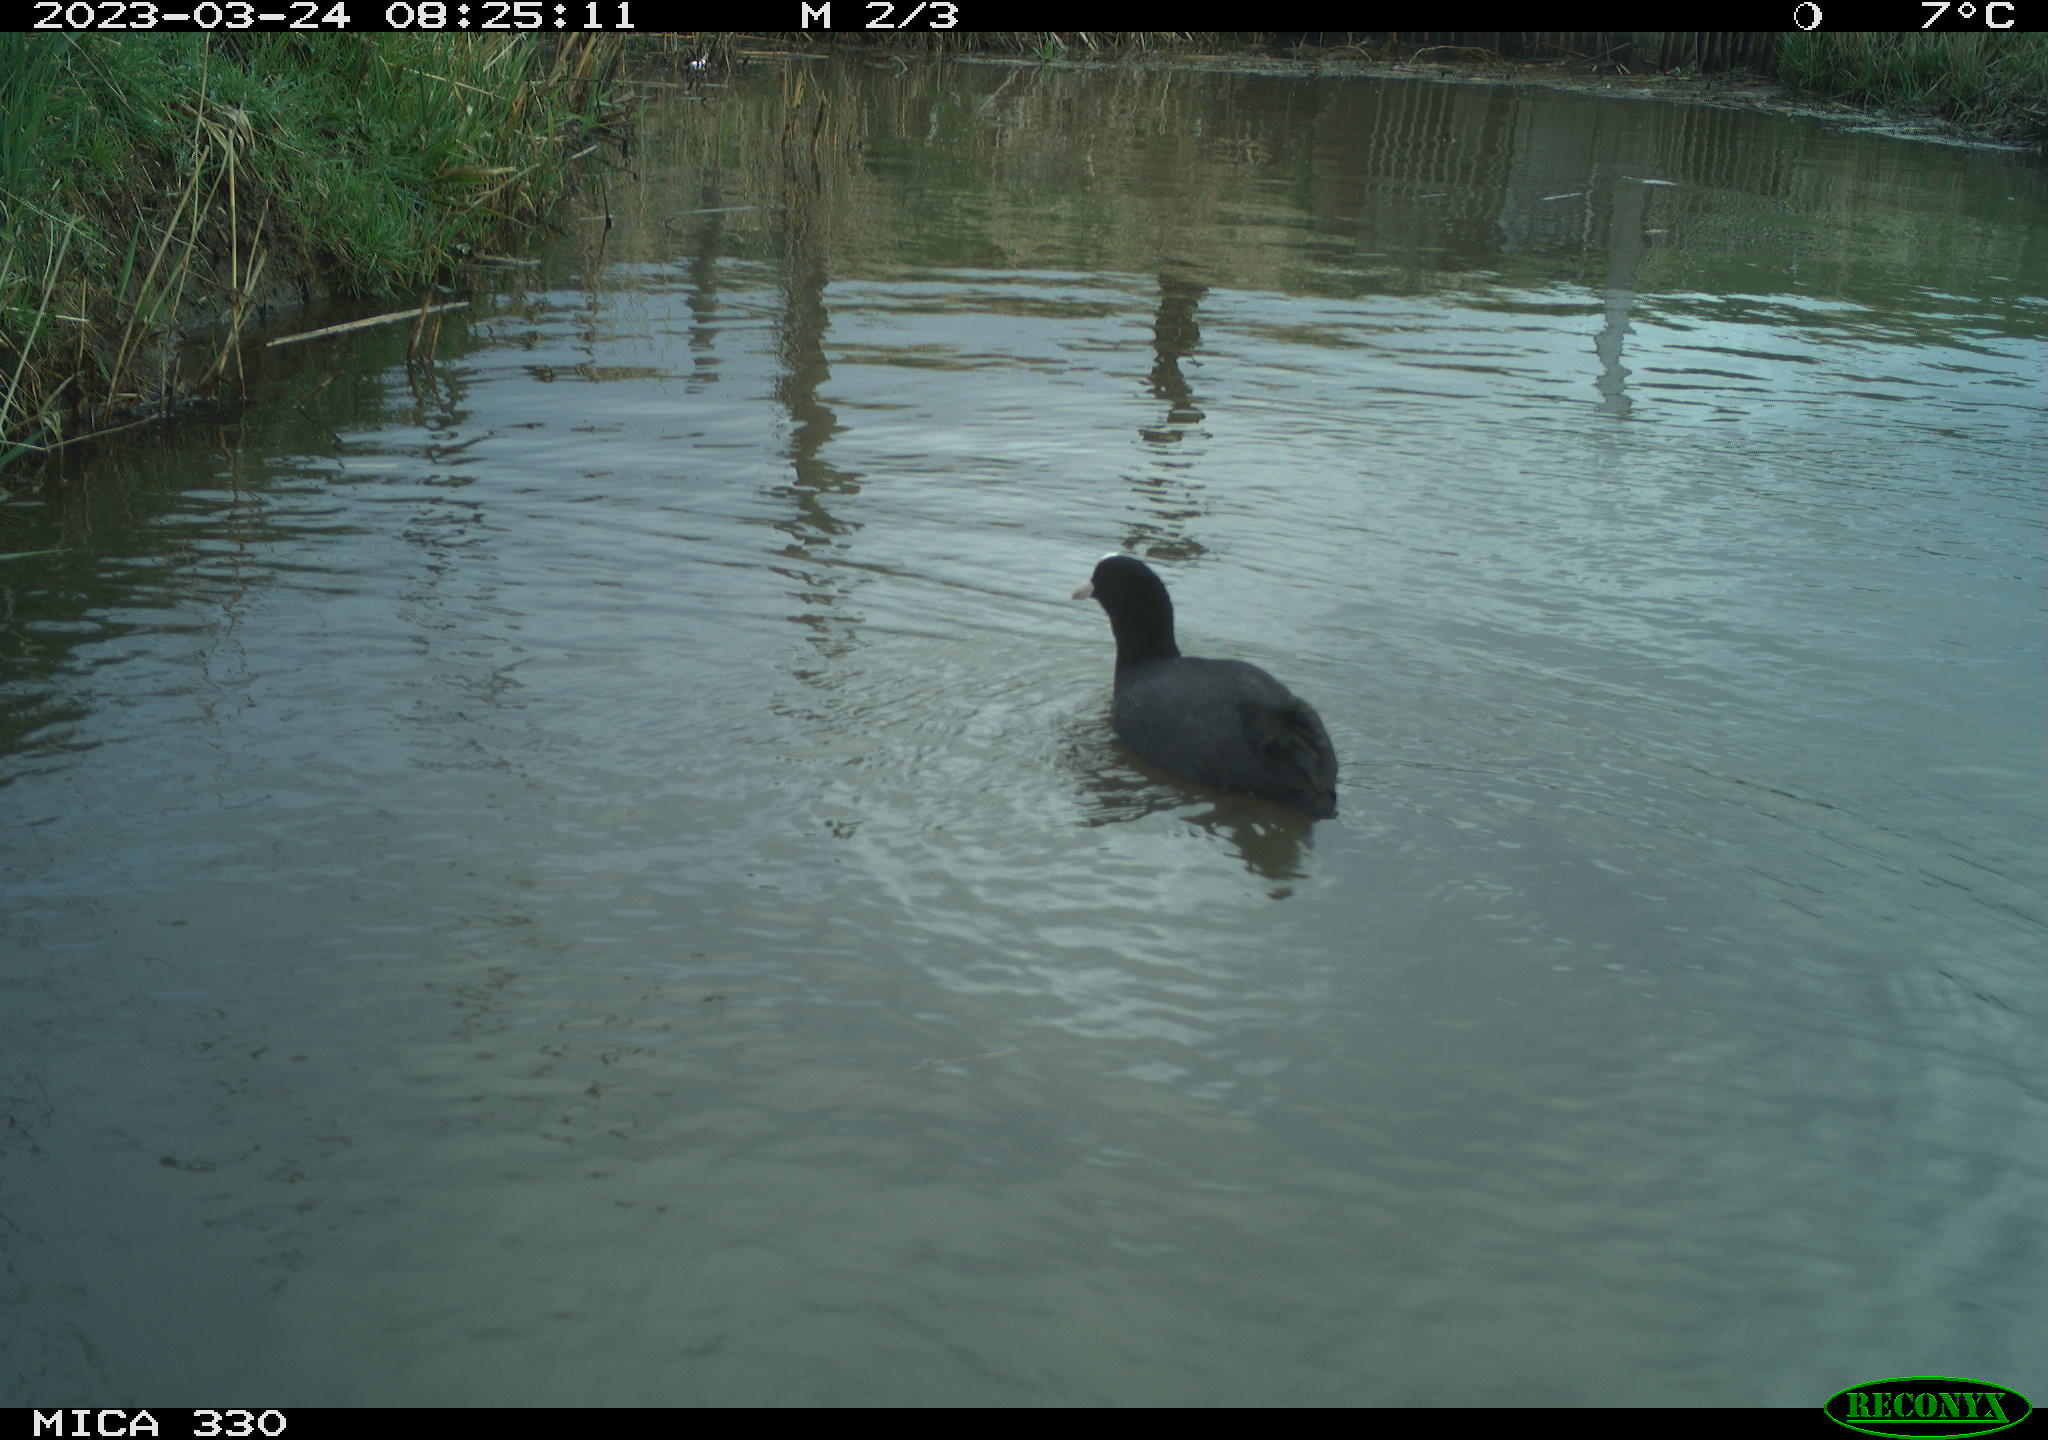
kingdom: Animalia
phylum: Chordata
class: Aves
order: Gruiformes
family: Rallidae
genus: Gallinula
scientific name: Gallinula chloropus
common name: Common moorhen
